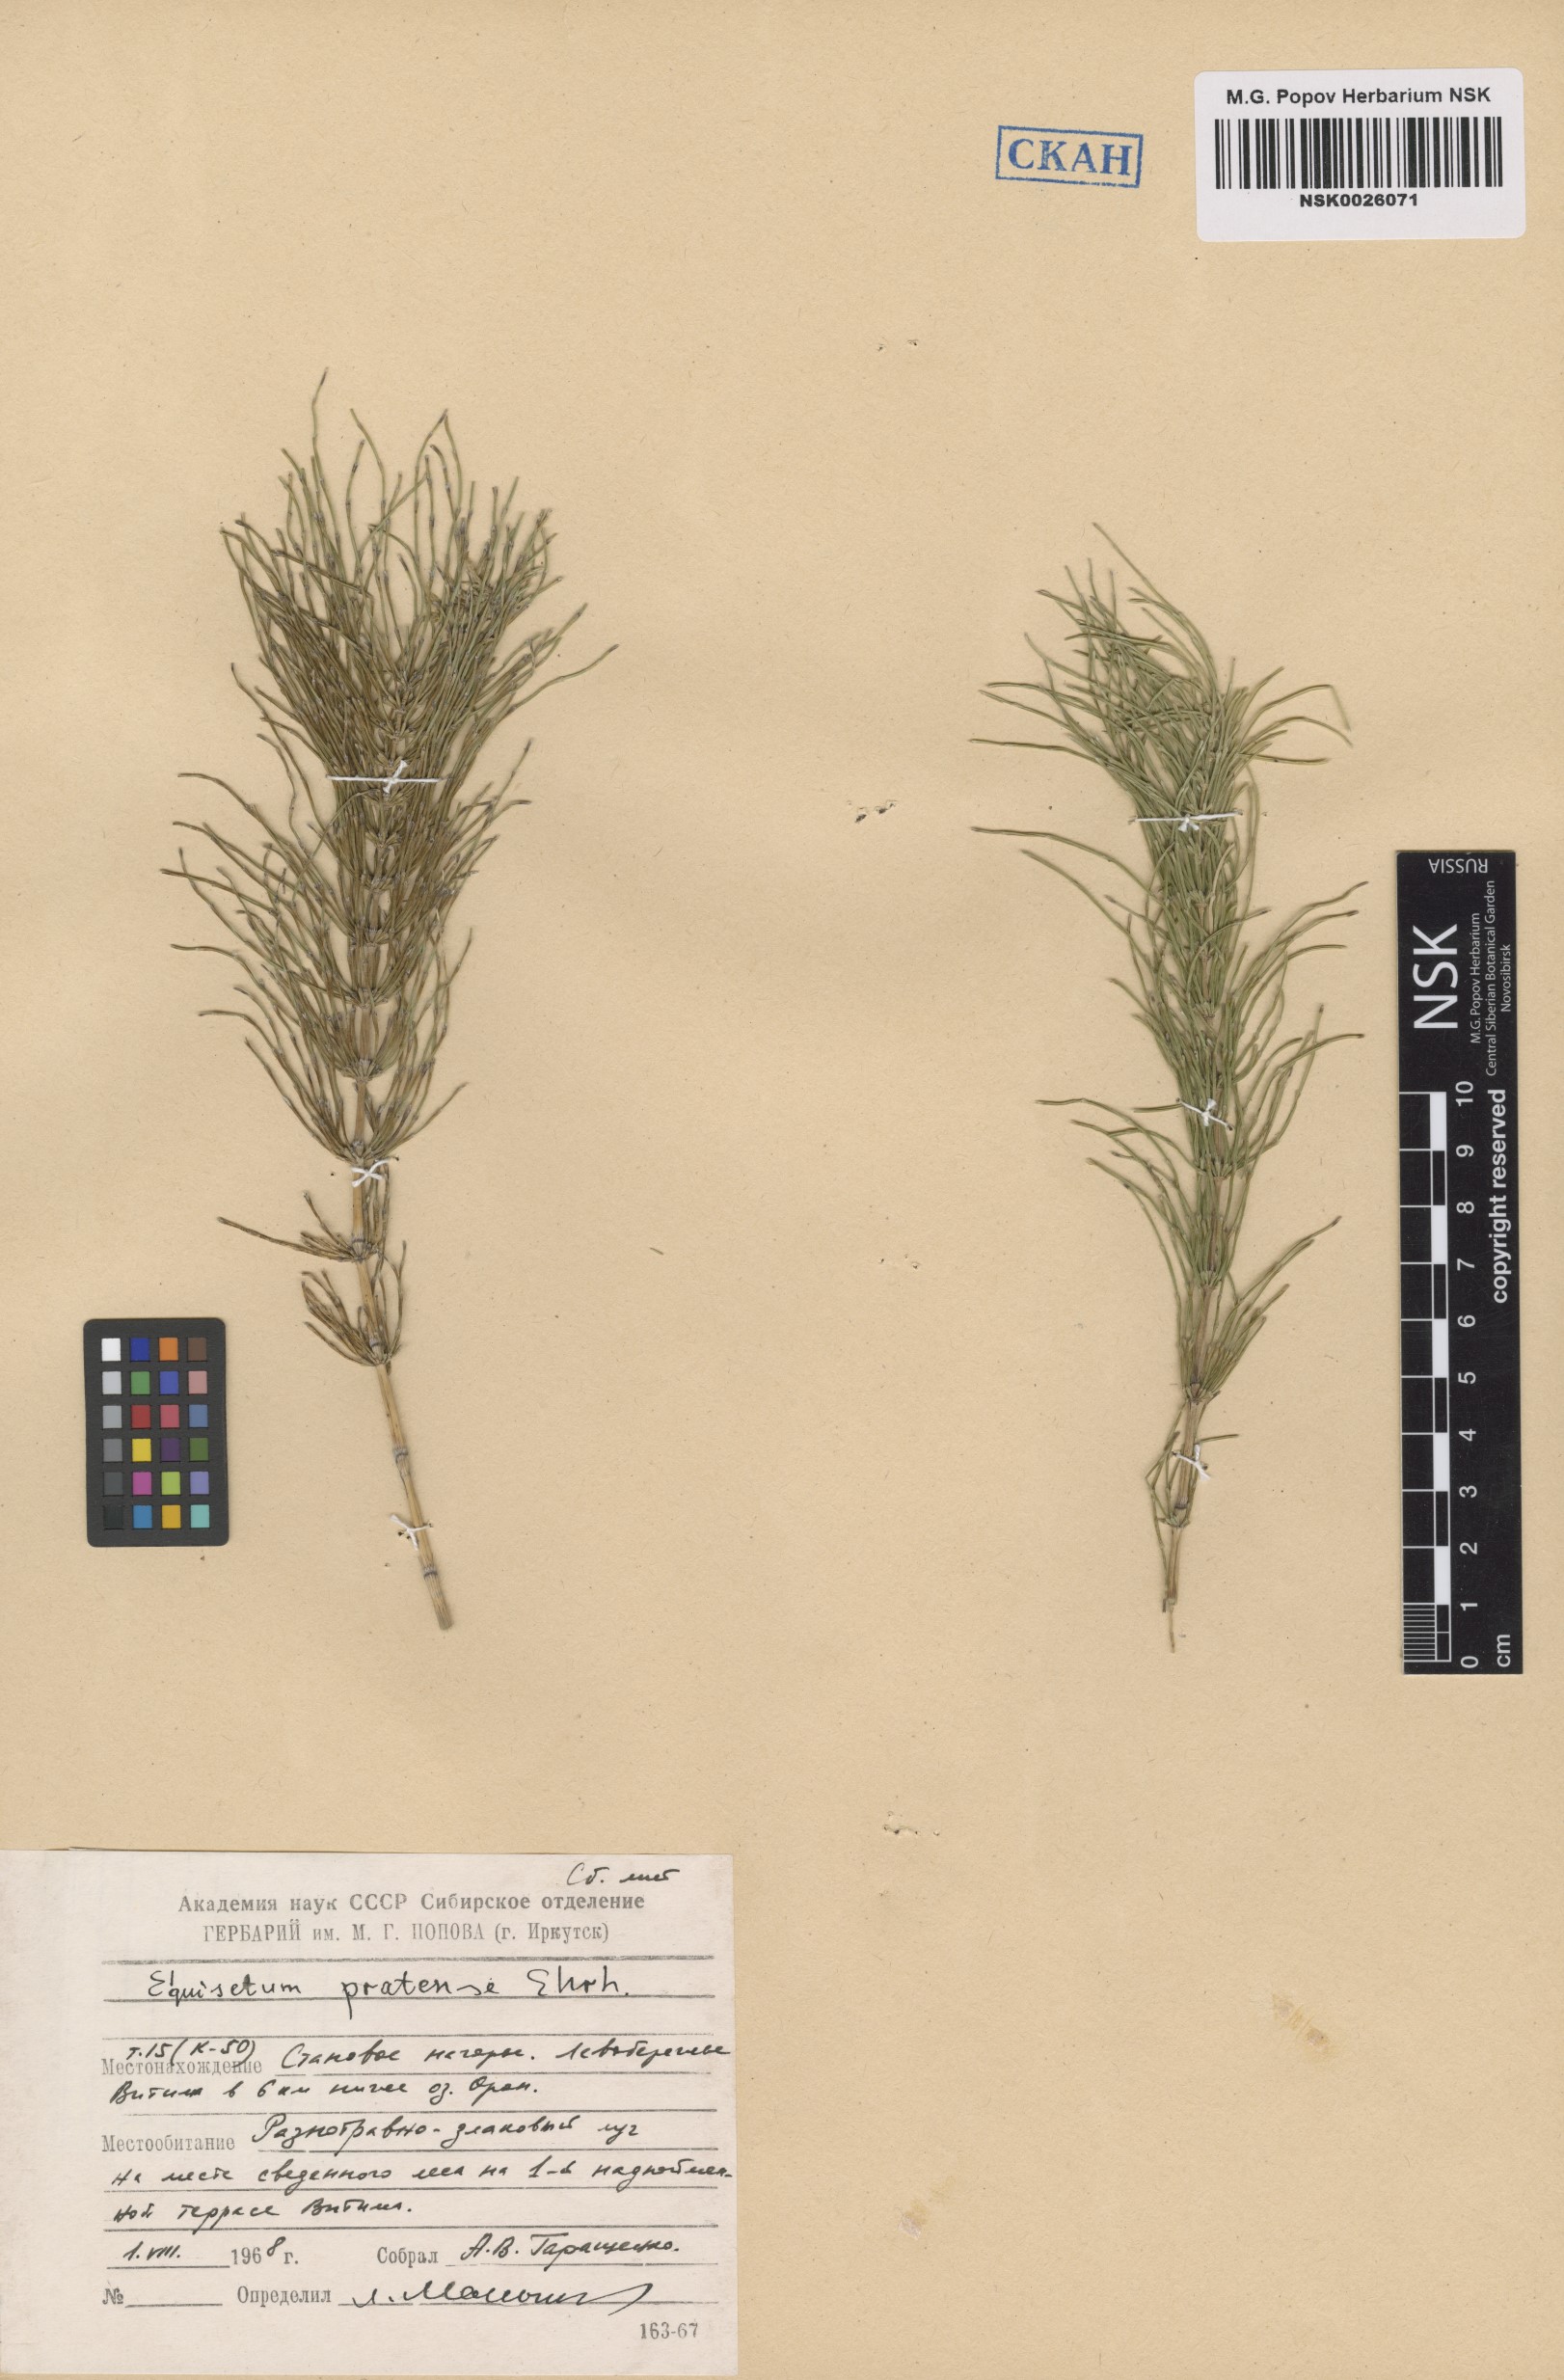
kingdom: Plantae
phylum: Tracheophyta
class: Polypodiopsida
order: Equisetales
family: Equisetaceae
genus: Equisetum
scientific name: Equisetum pratense
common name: Meadow horsetail
